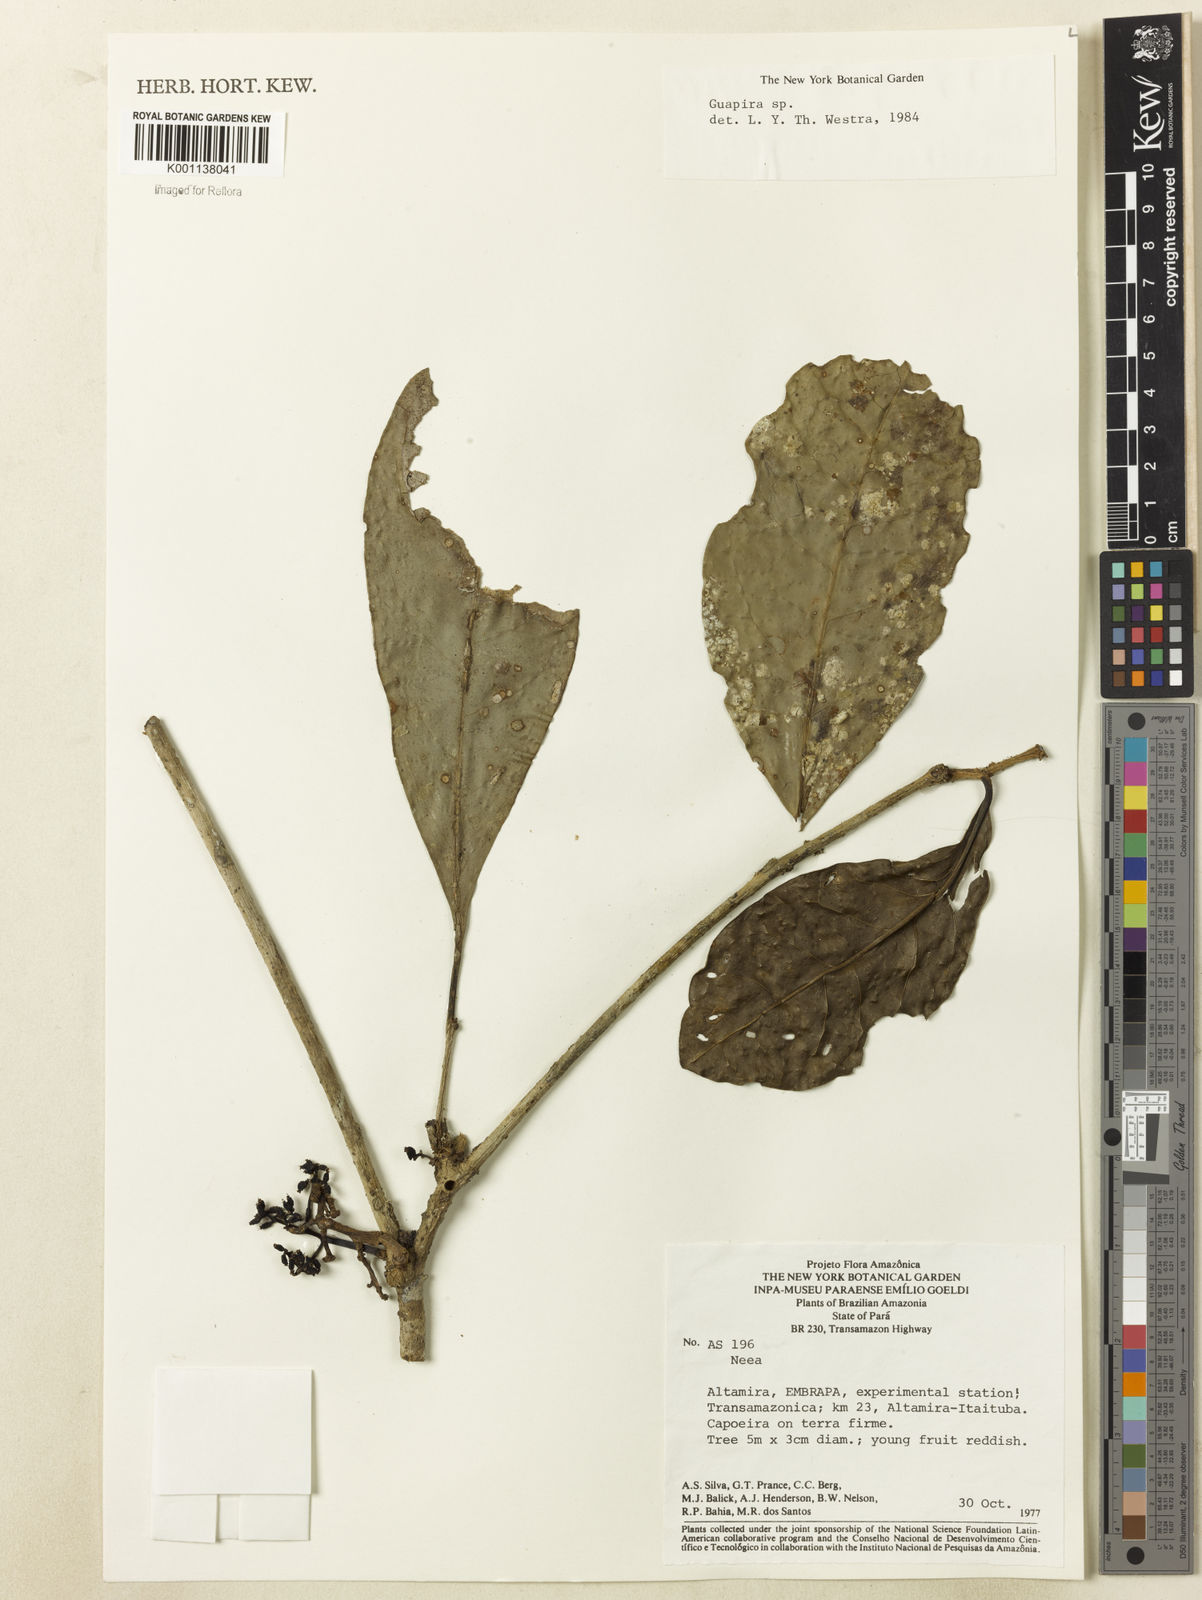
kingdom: Plantae
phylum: Tracheophyta
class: Magnoliopsida
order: Caryophyllales
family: Nyctaginaceae
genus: Neea
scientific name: Neea
